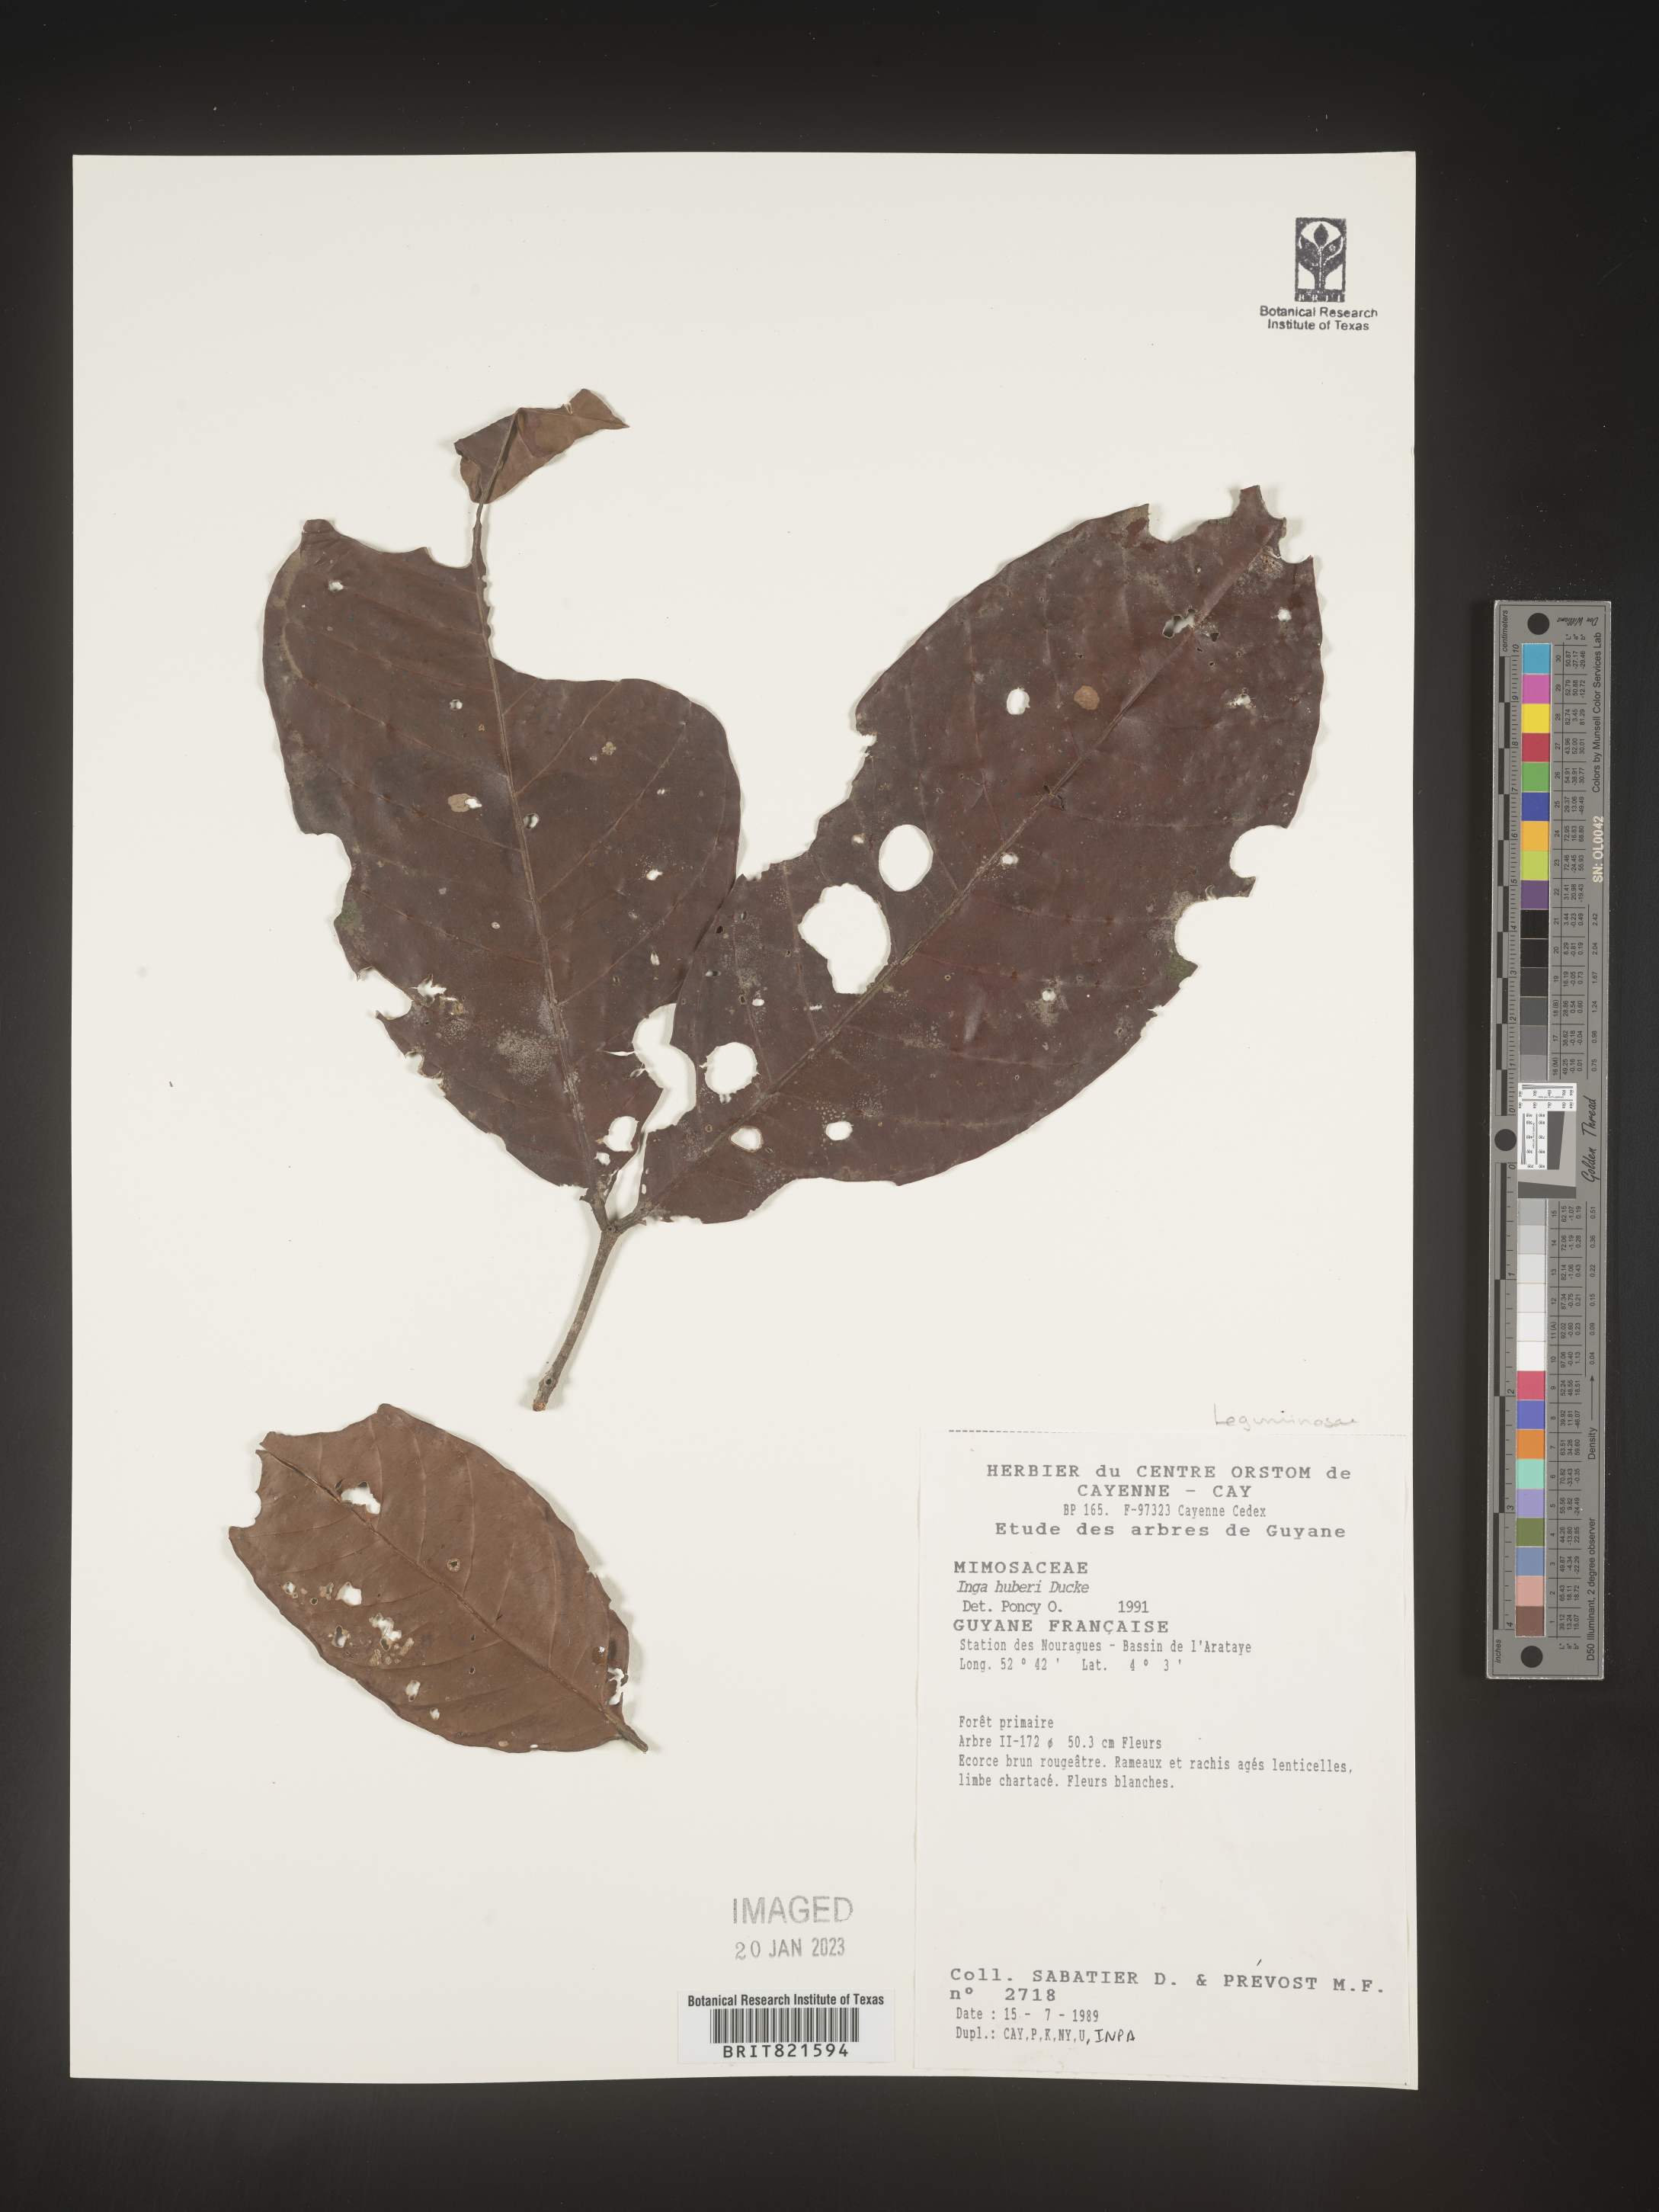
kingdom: Plantae
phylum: Tracheophyta
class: Magnoliopsida
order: Fabales
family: Fabaceae
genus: Inga
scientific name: Inga
